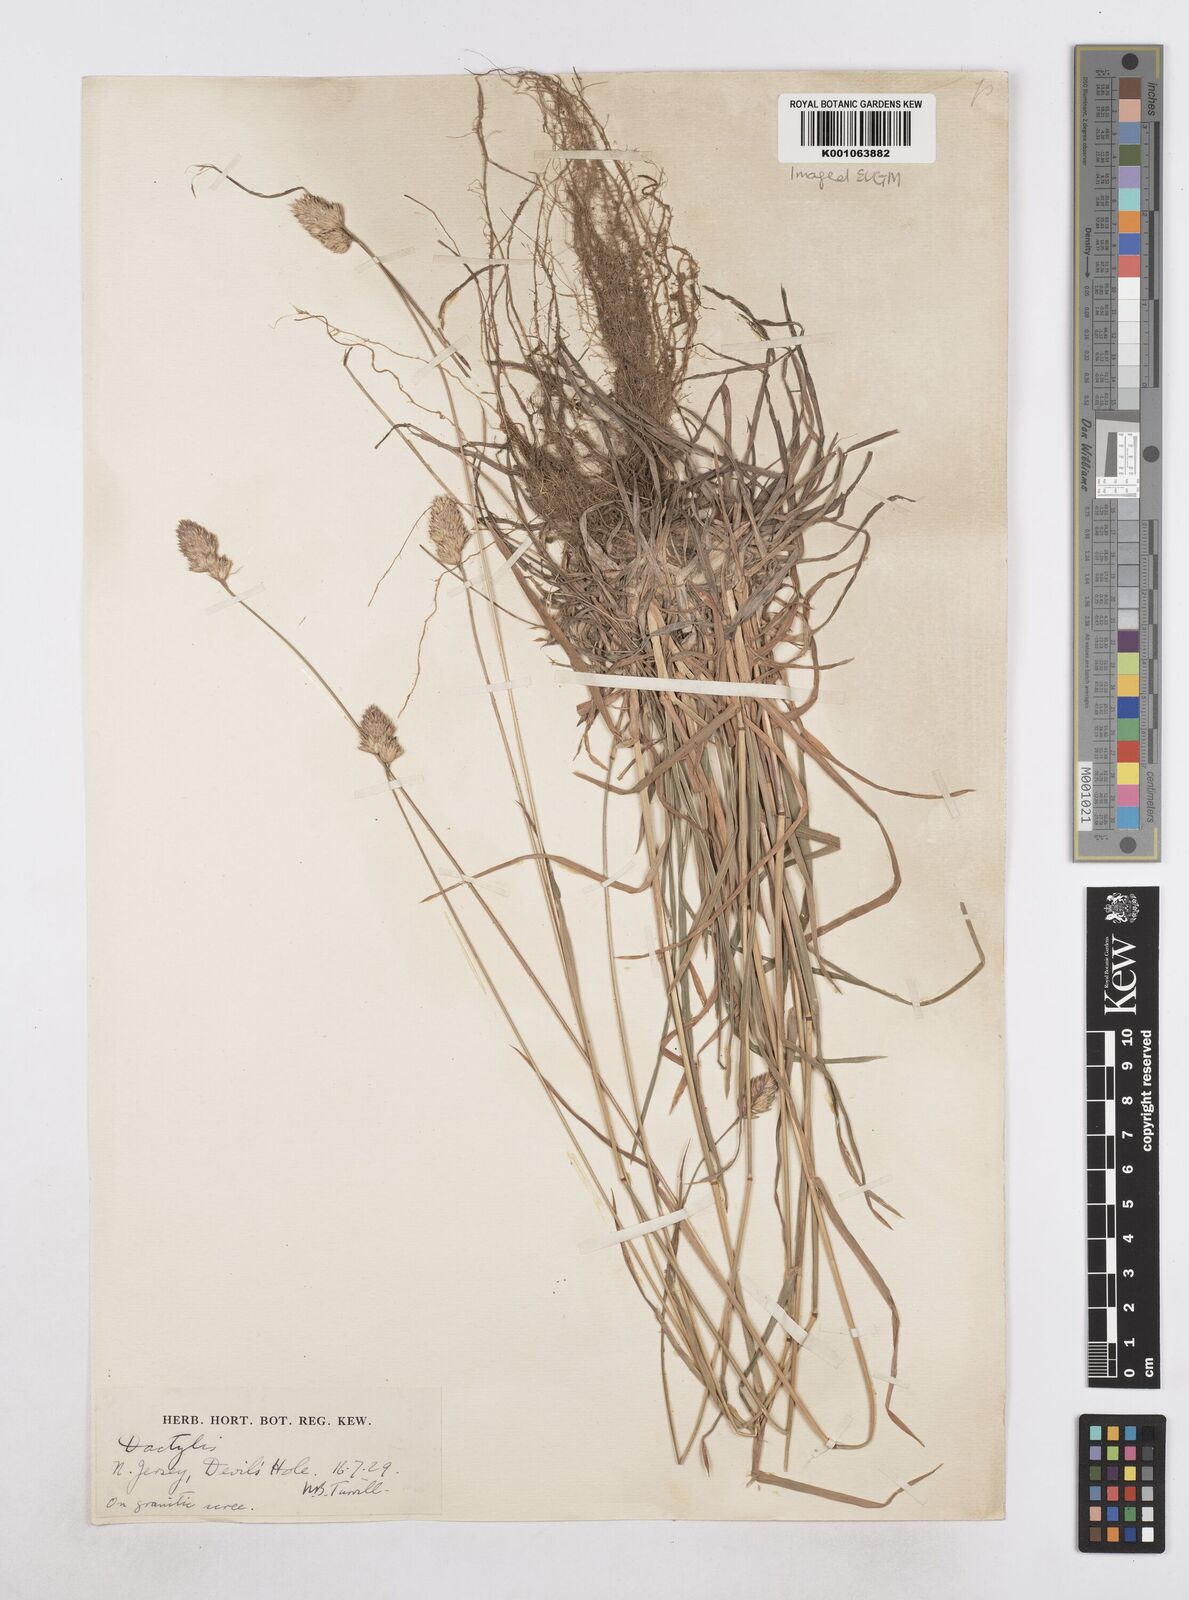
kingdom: Plantae
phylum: Tracheophyta
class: Liliopsida
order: Poales
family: Poaceae
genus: Dactylis
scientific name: Dactylis glomerata
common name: Orchardgrass
